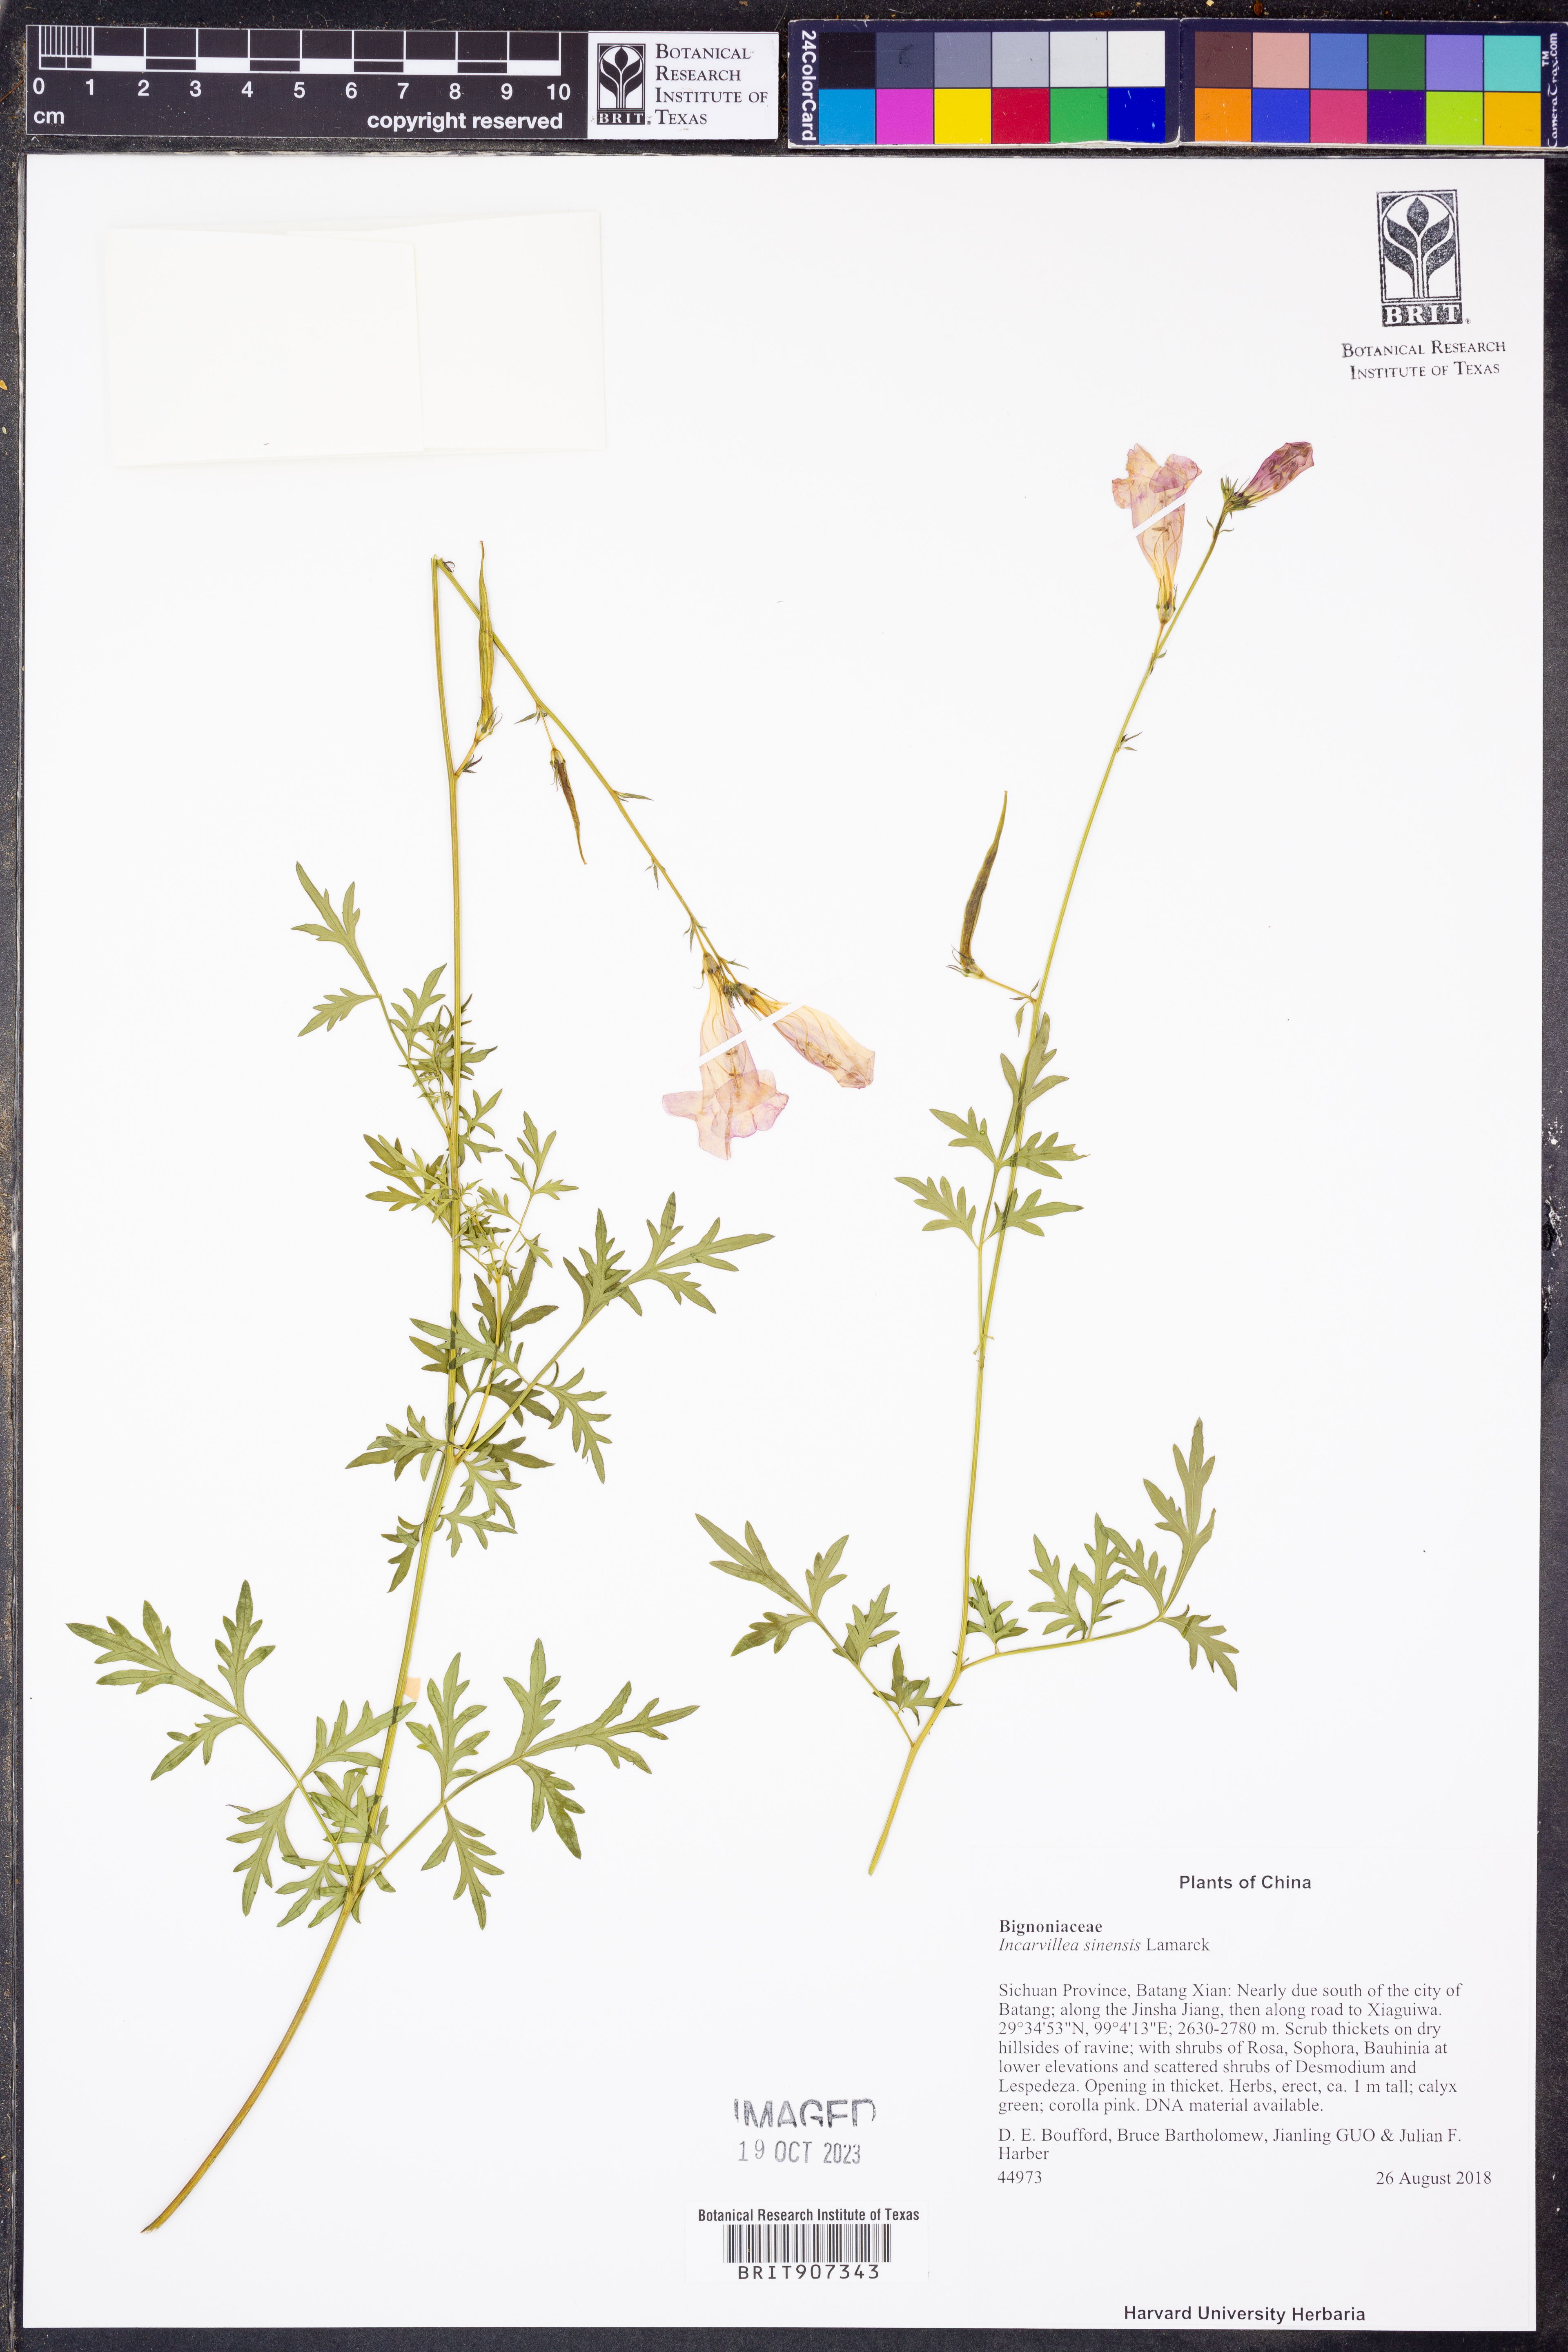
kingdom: Plantae
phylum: Tracheophyta
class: Magnoliopsida
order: Lamiales
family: Bignoniaceae
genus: Incarvillea
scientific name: Incarvillea sinensis
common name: Trumpet-flower
